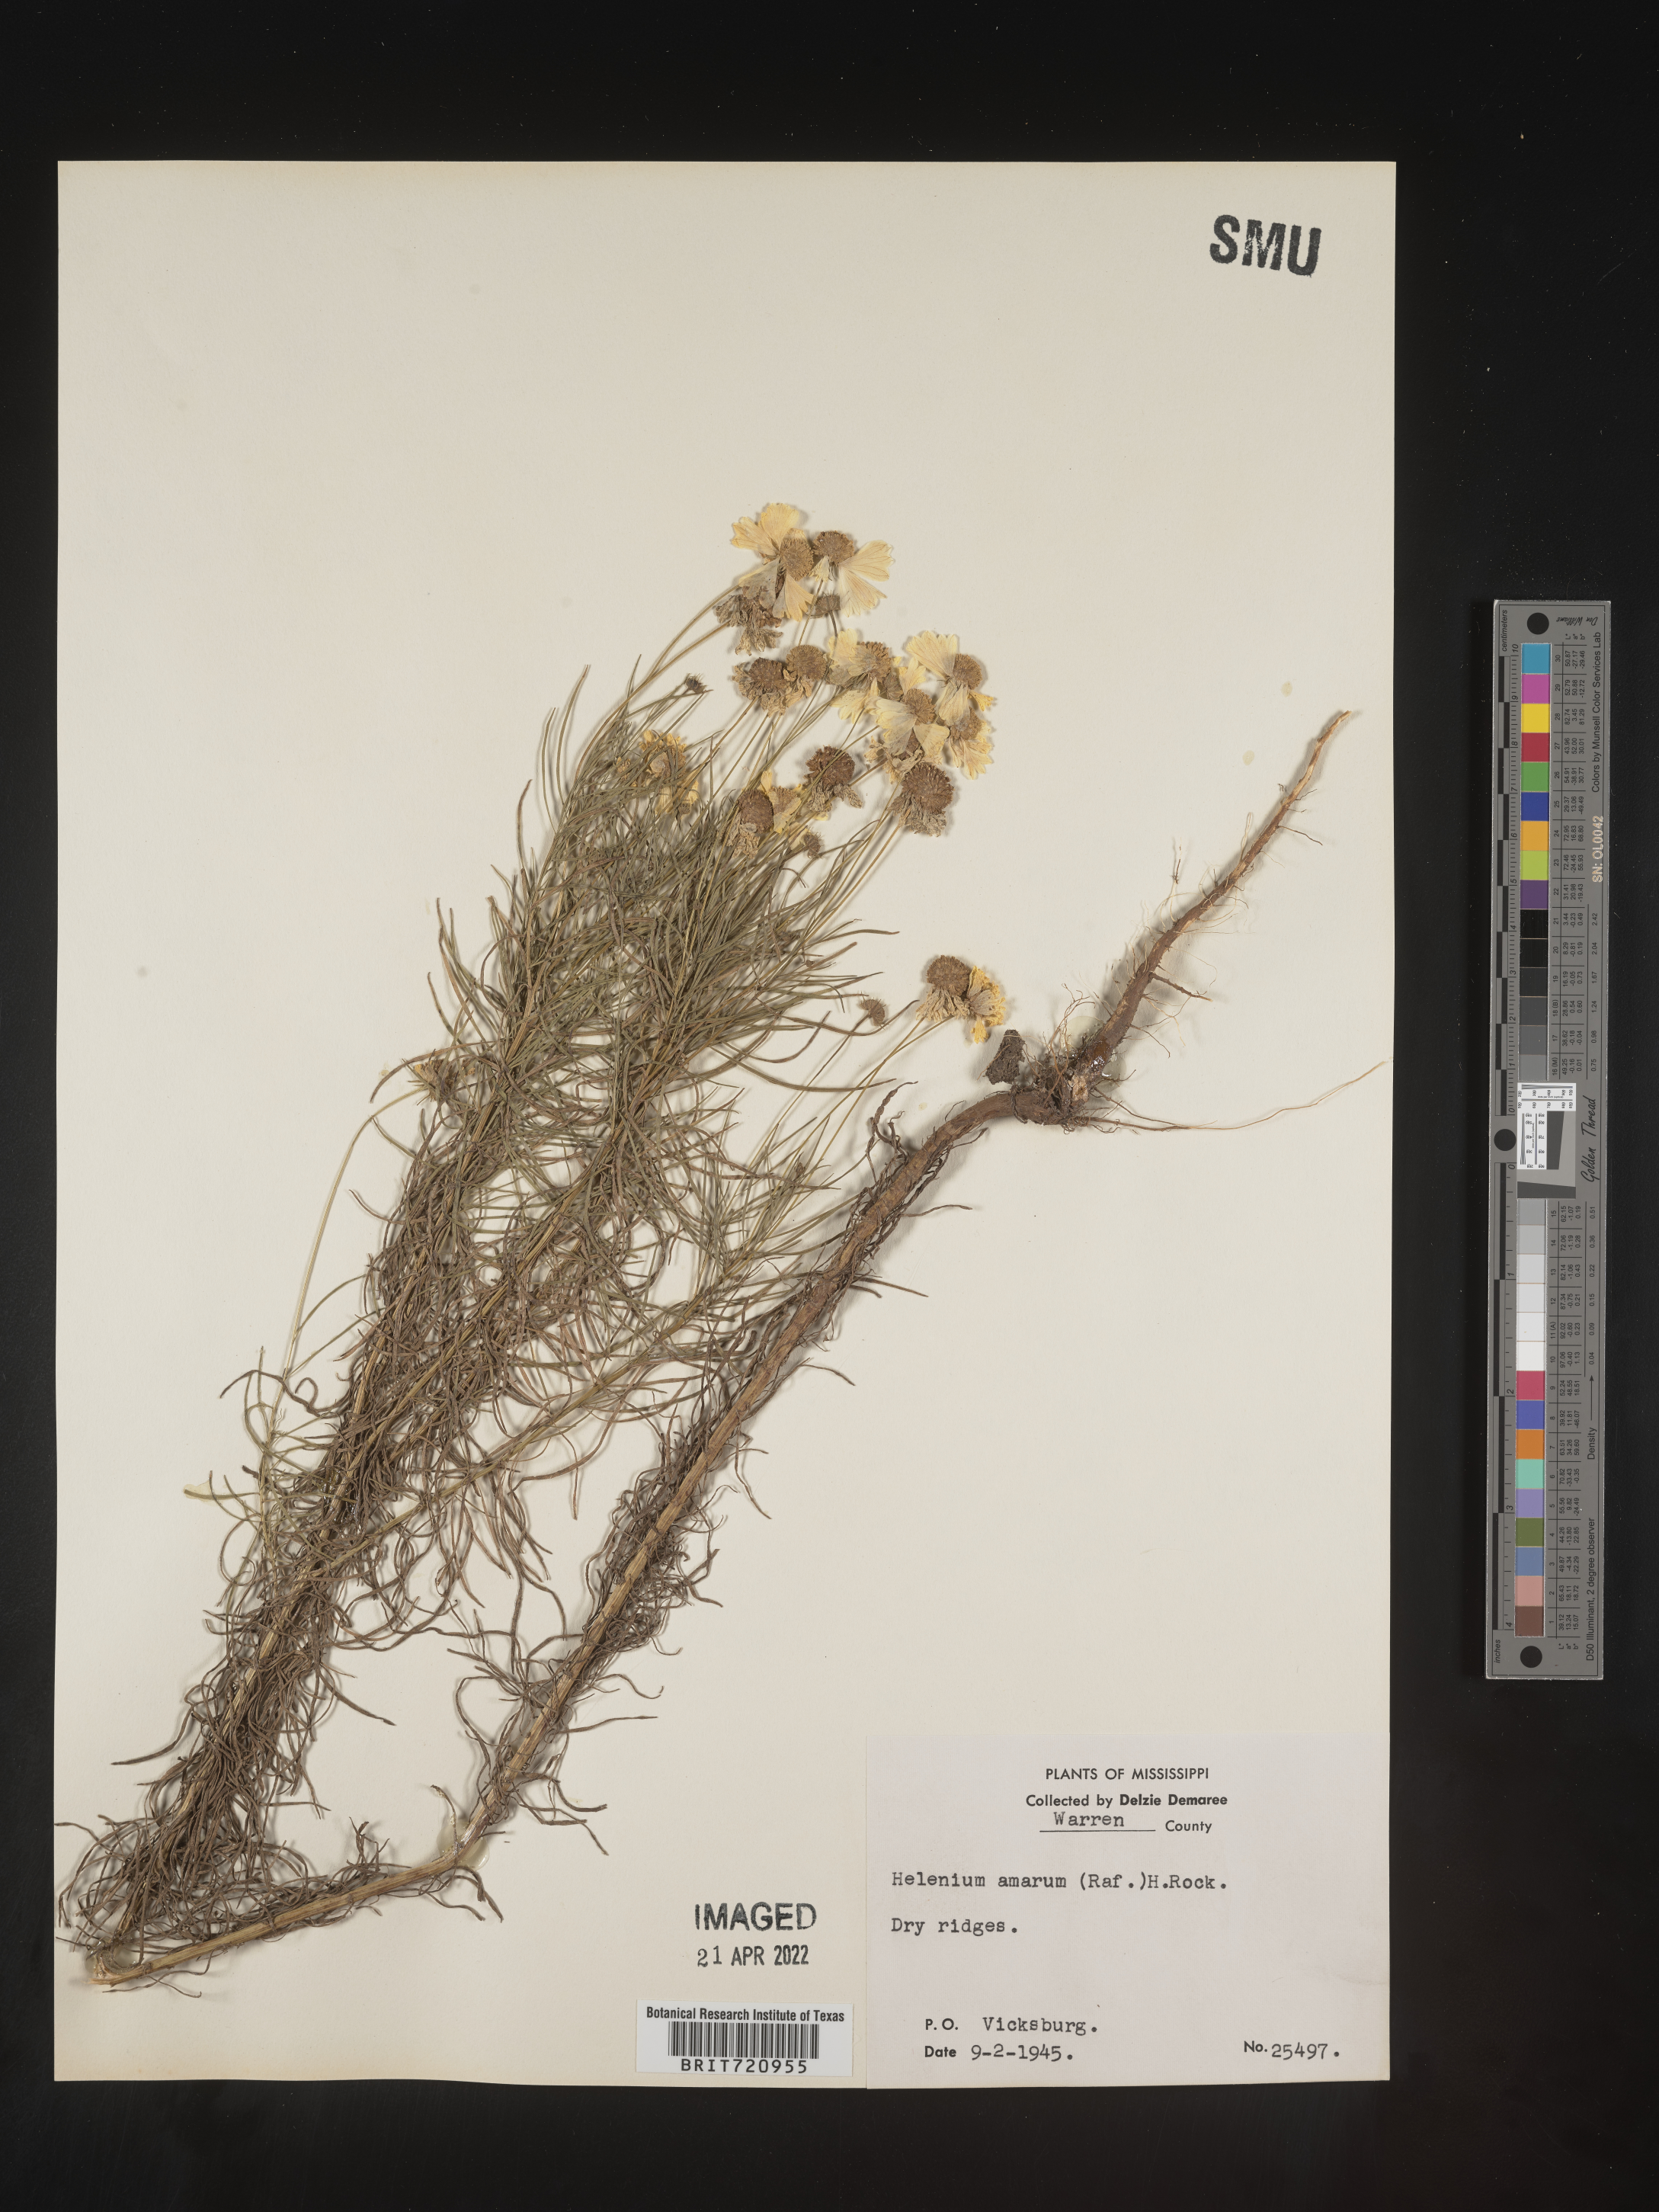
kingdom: Plantae
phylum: Tracheophyta
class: Magnoliopsida
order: Asterales
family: Asteraceae
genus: Helenium
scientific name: Helenium amarum
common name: Bitter sneezeweed
